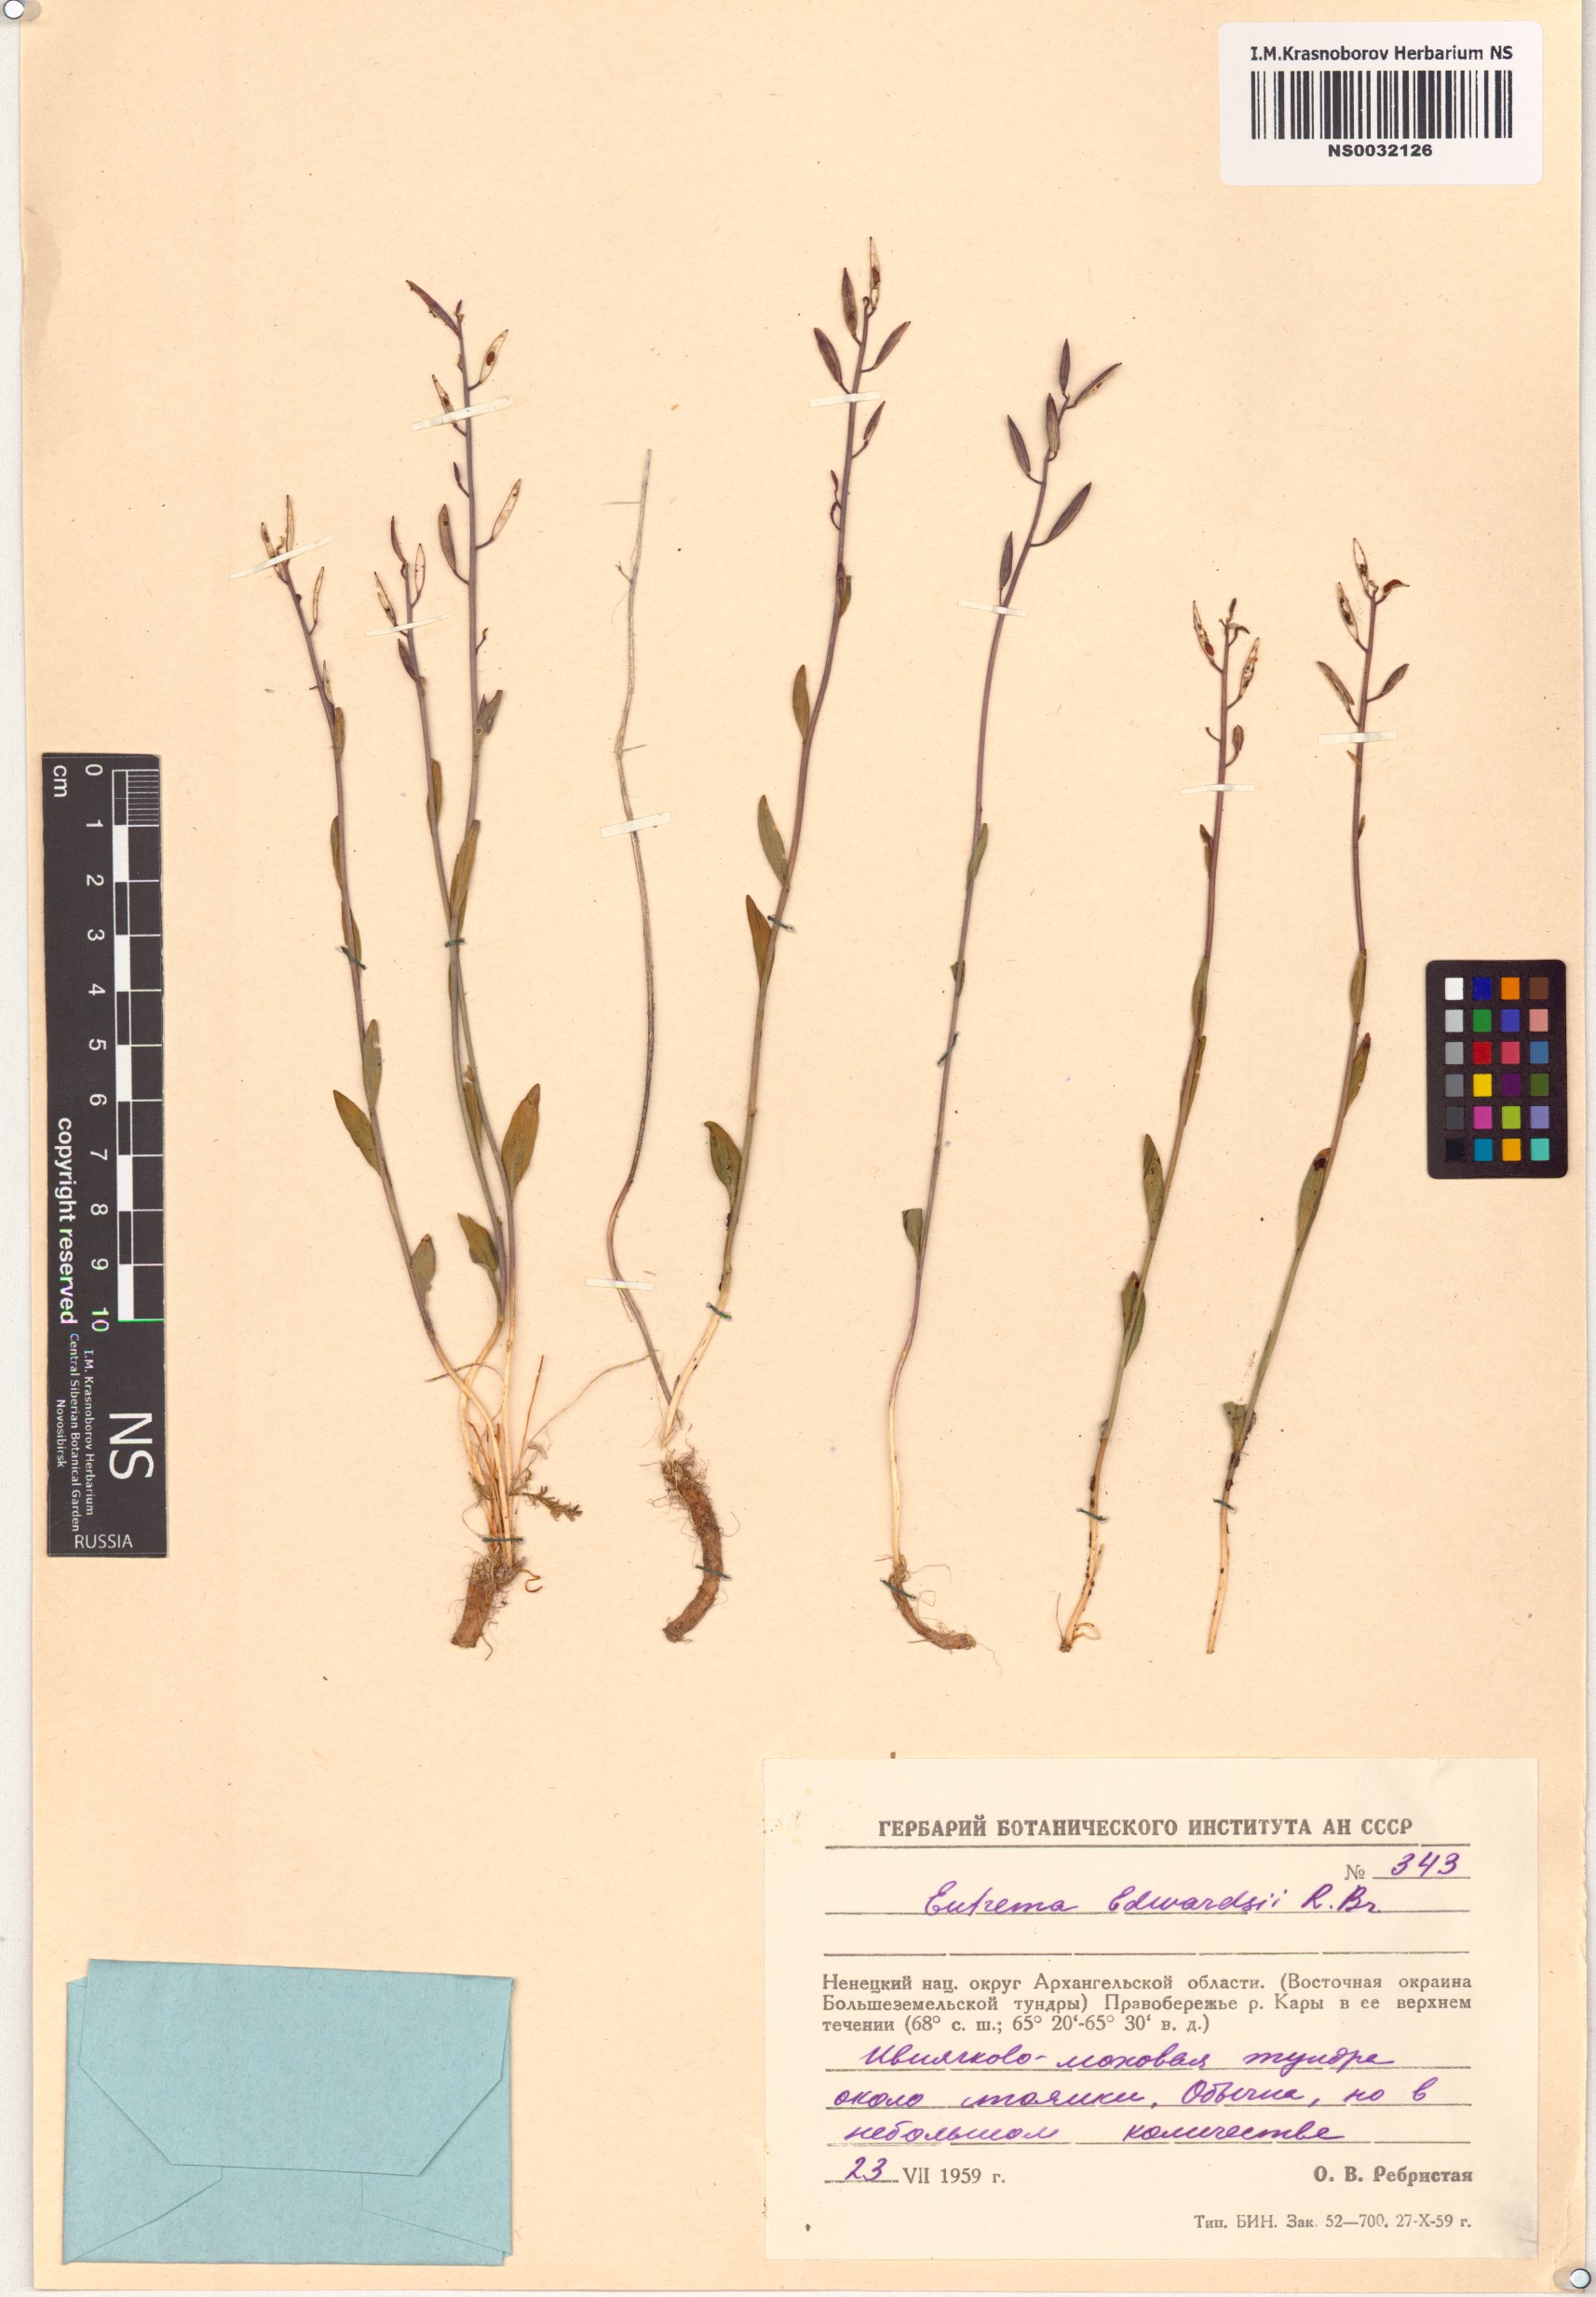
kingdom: Plantae
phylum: Tracheophyta
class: Magnoliopsida
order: Brassicales
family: Brassicaceae
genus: Eutrema
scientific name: Eutrema edwardsii
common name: Penland alpine fen mustard
